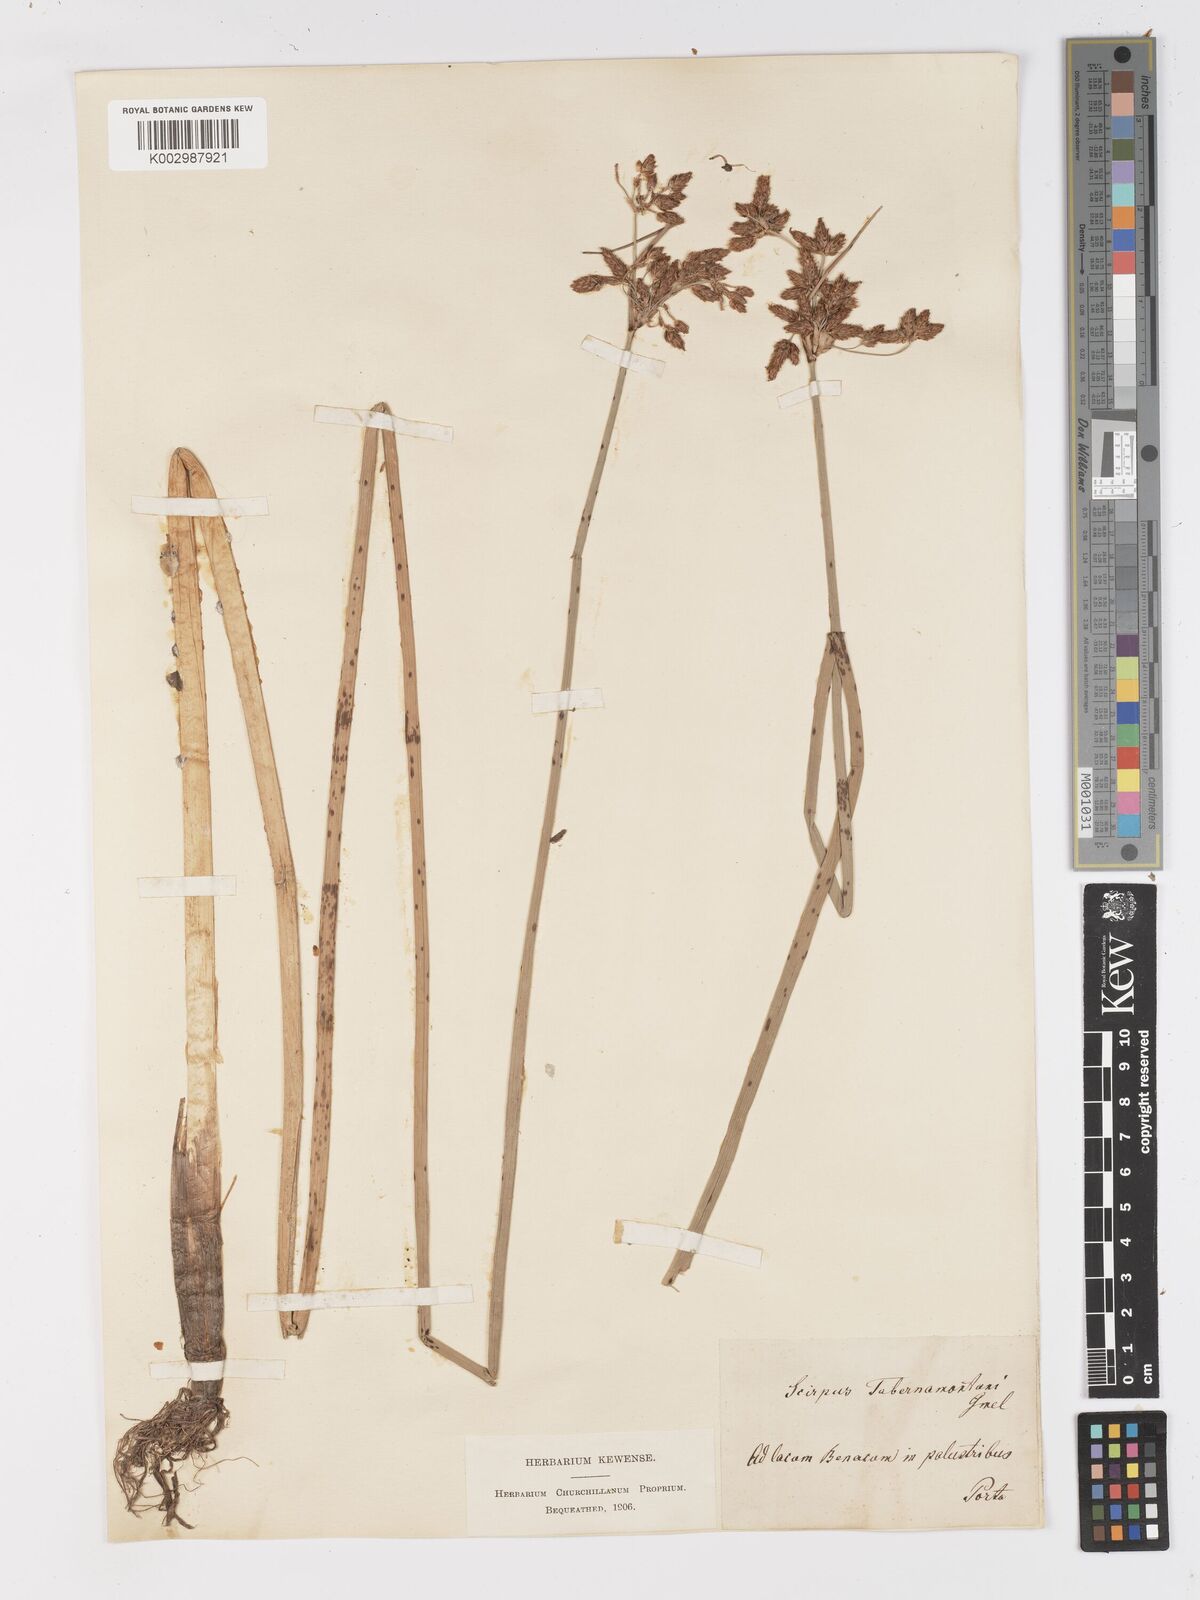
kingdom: Plantae
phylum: Tracheophyta
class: Liliopsida
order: Poales
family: Cyperaceae
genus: Schoenoplectus
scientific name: Schoenoplectus tabernaemontani
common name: Grey club-rush
